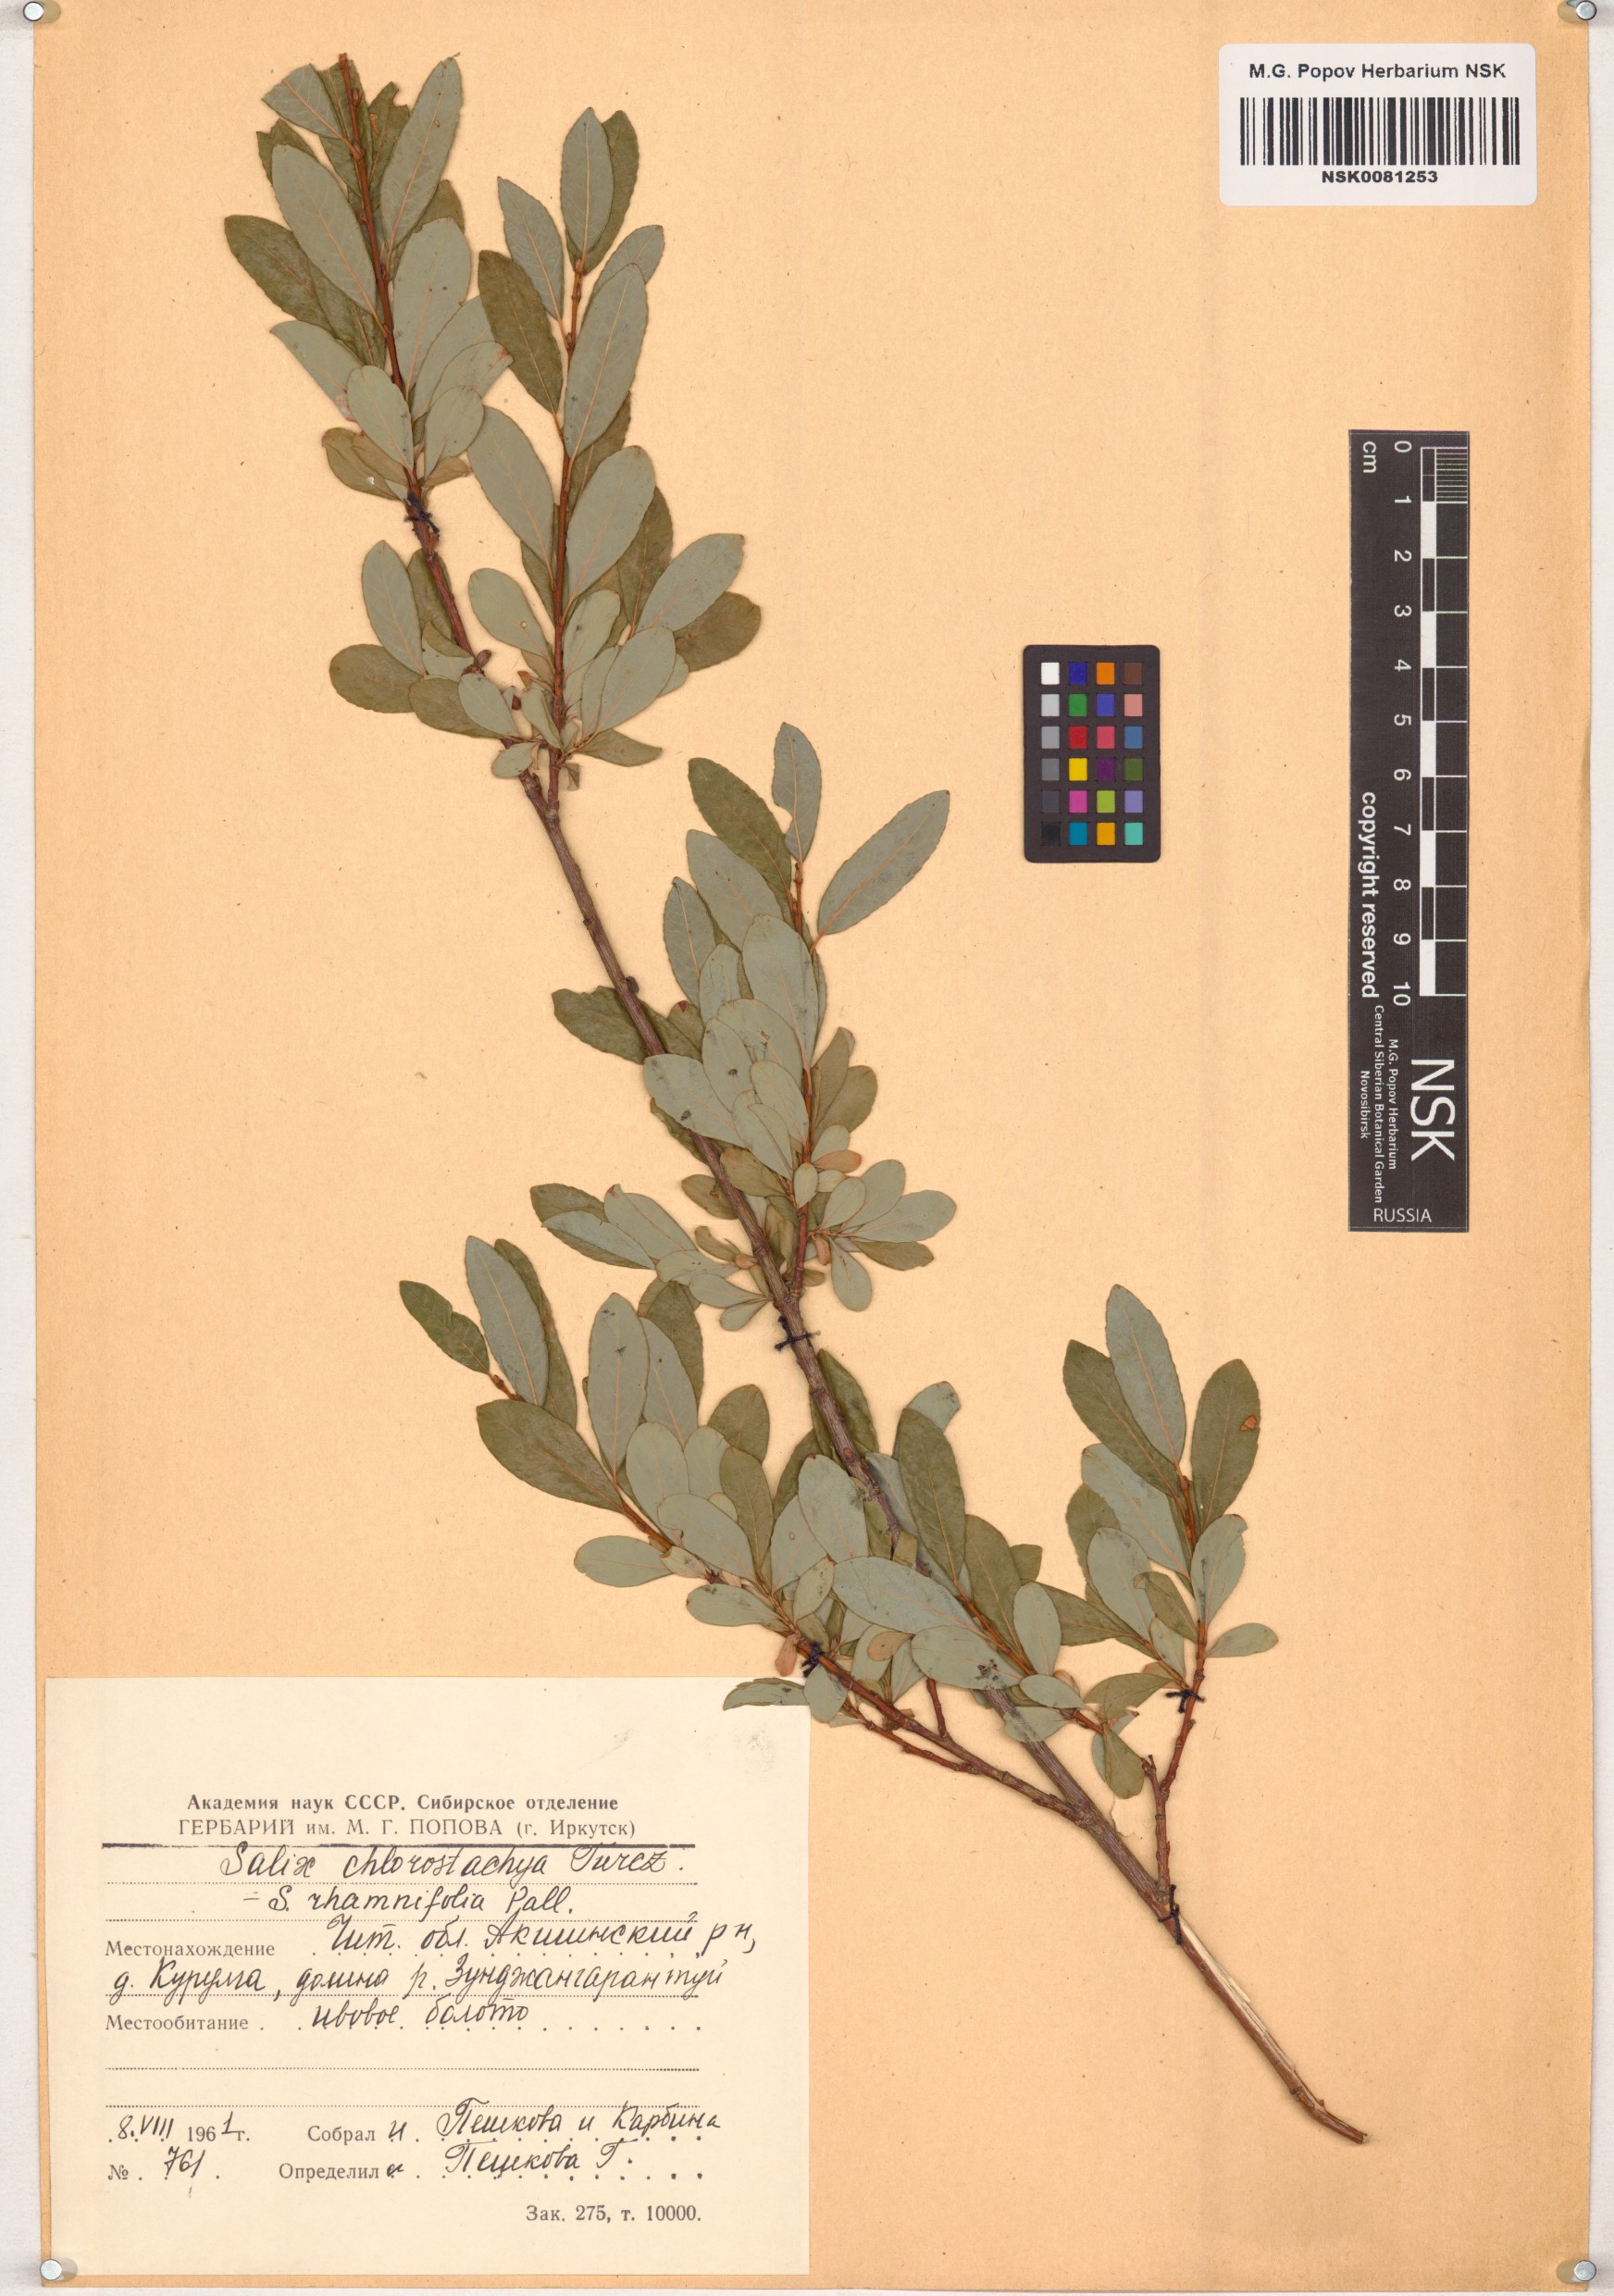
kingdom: Plantae
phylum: Tracheophyta
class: Magnoliopsida
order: Malpighiales
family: Salicaceae
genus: Salix
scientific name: Salix rhamnifolia
